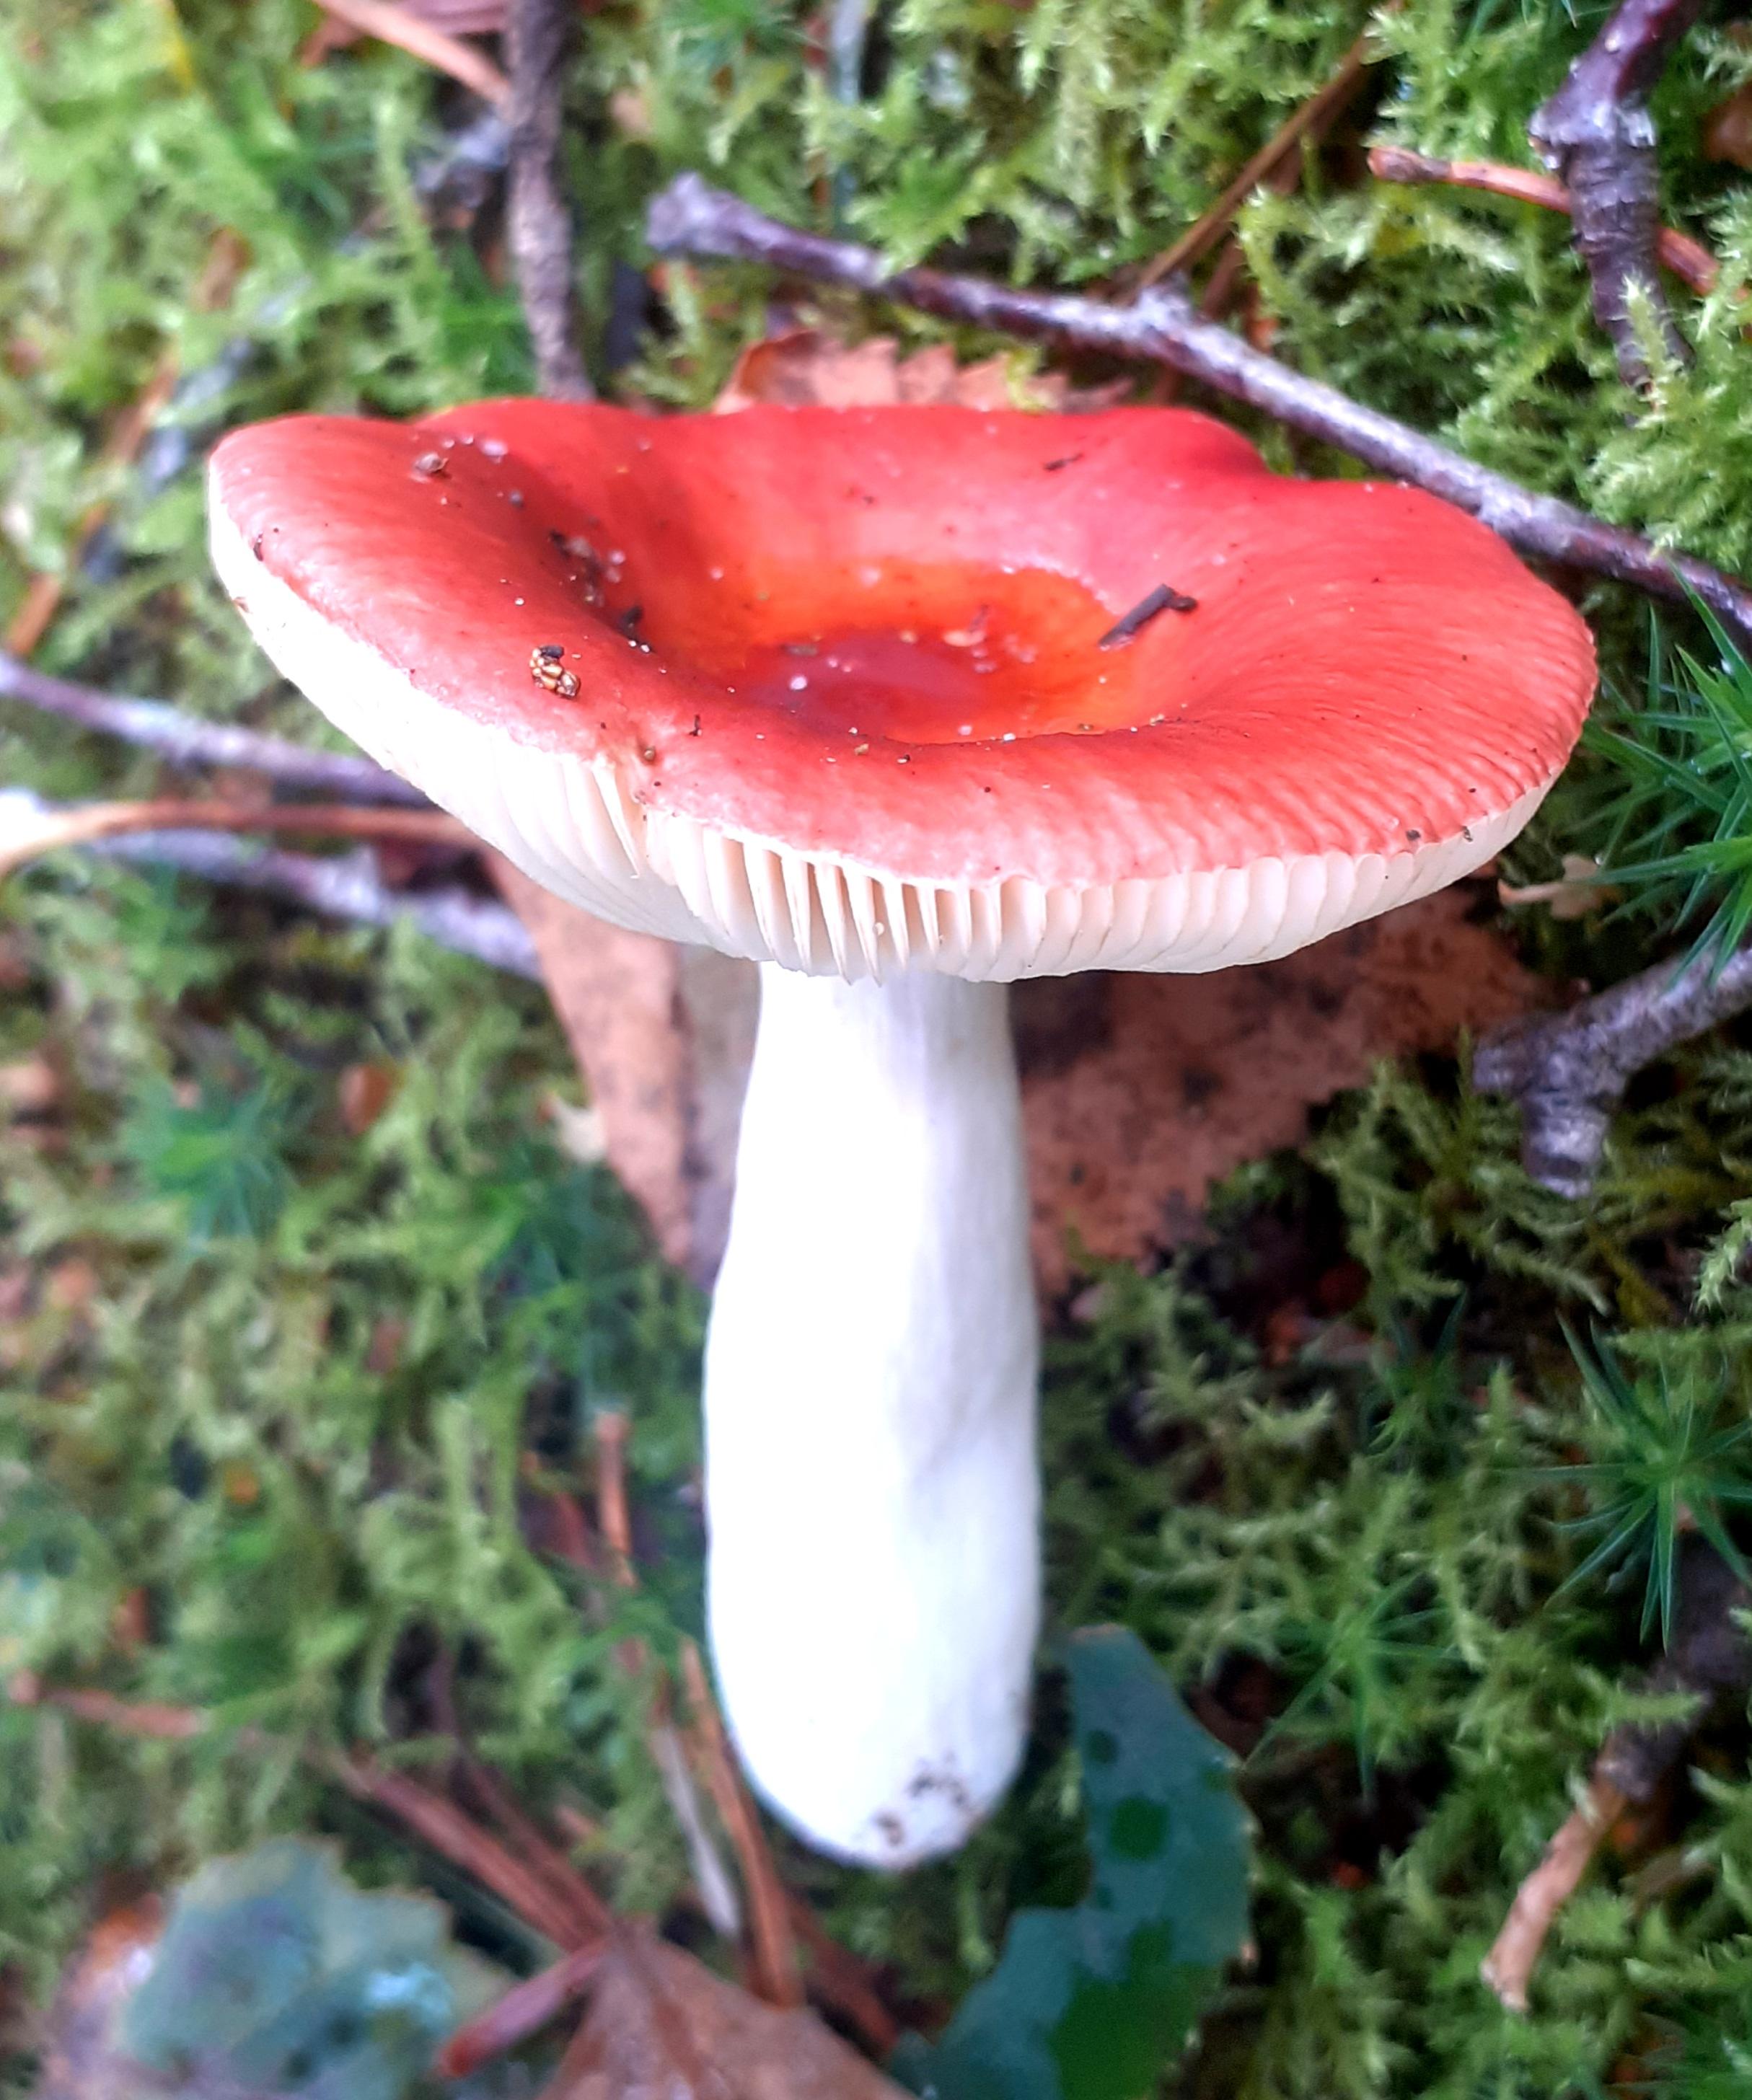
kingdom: Fungi
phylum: Basidiomycota
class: Agaricomycetes
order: Russulales
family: Russulaceae
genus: Russula
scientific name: Russula velenovskyi
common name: orangerød skørhat
